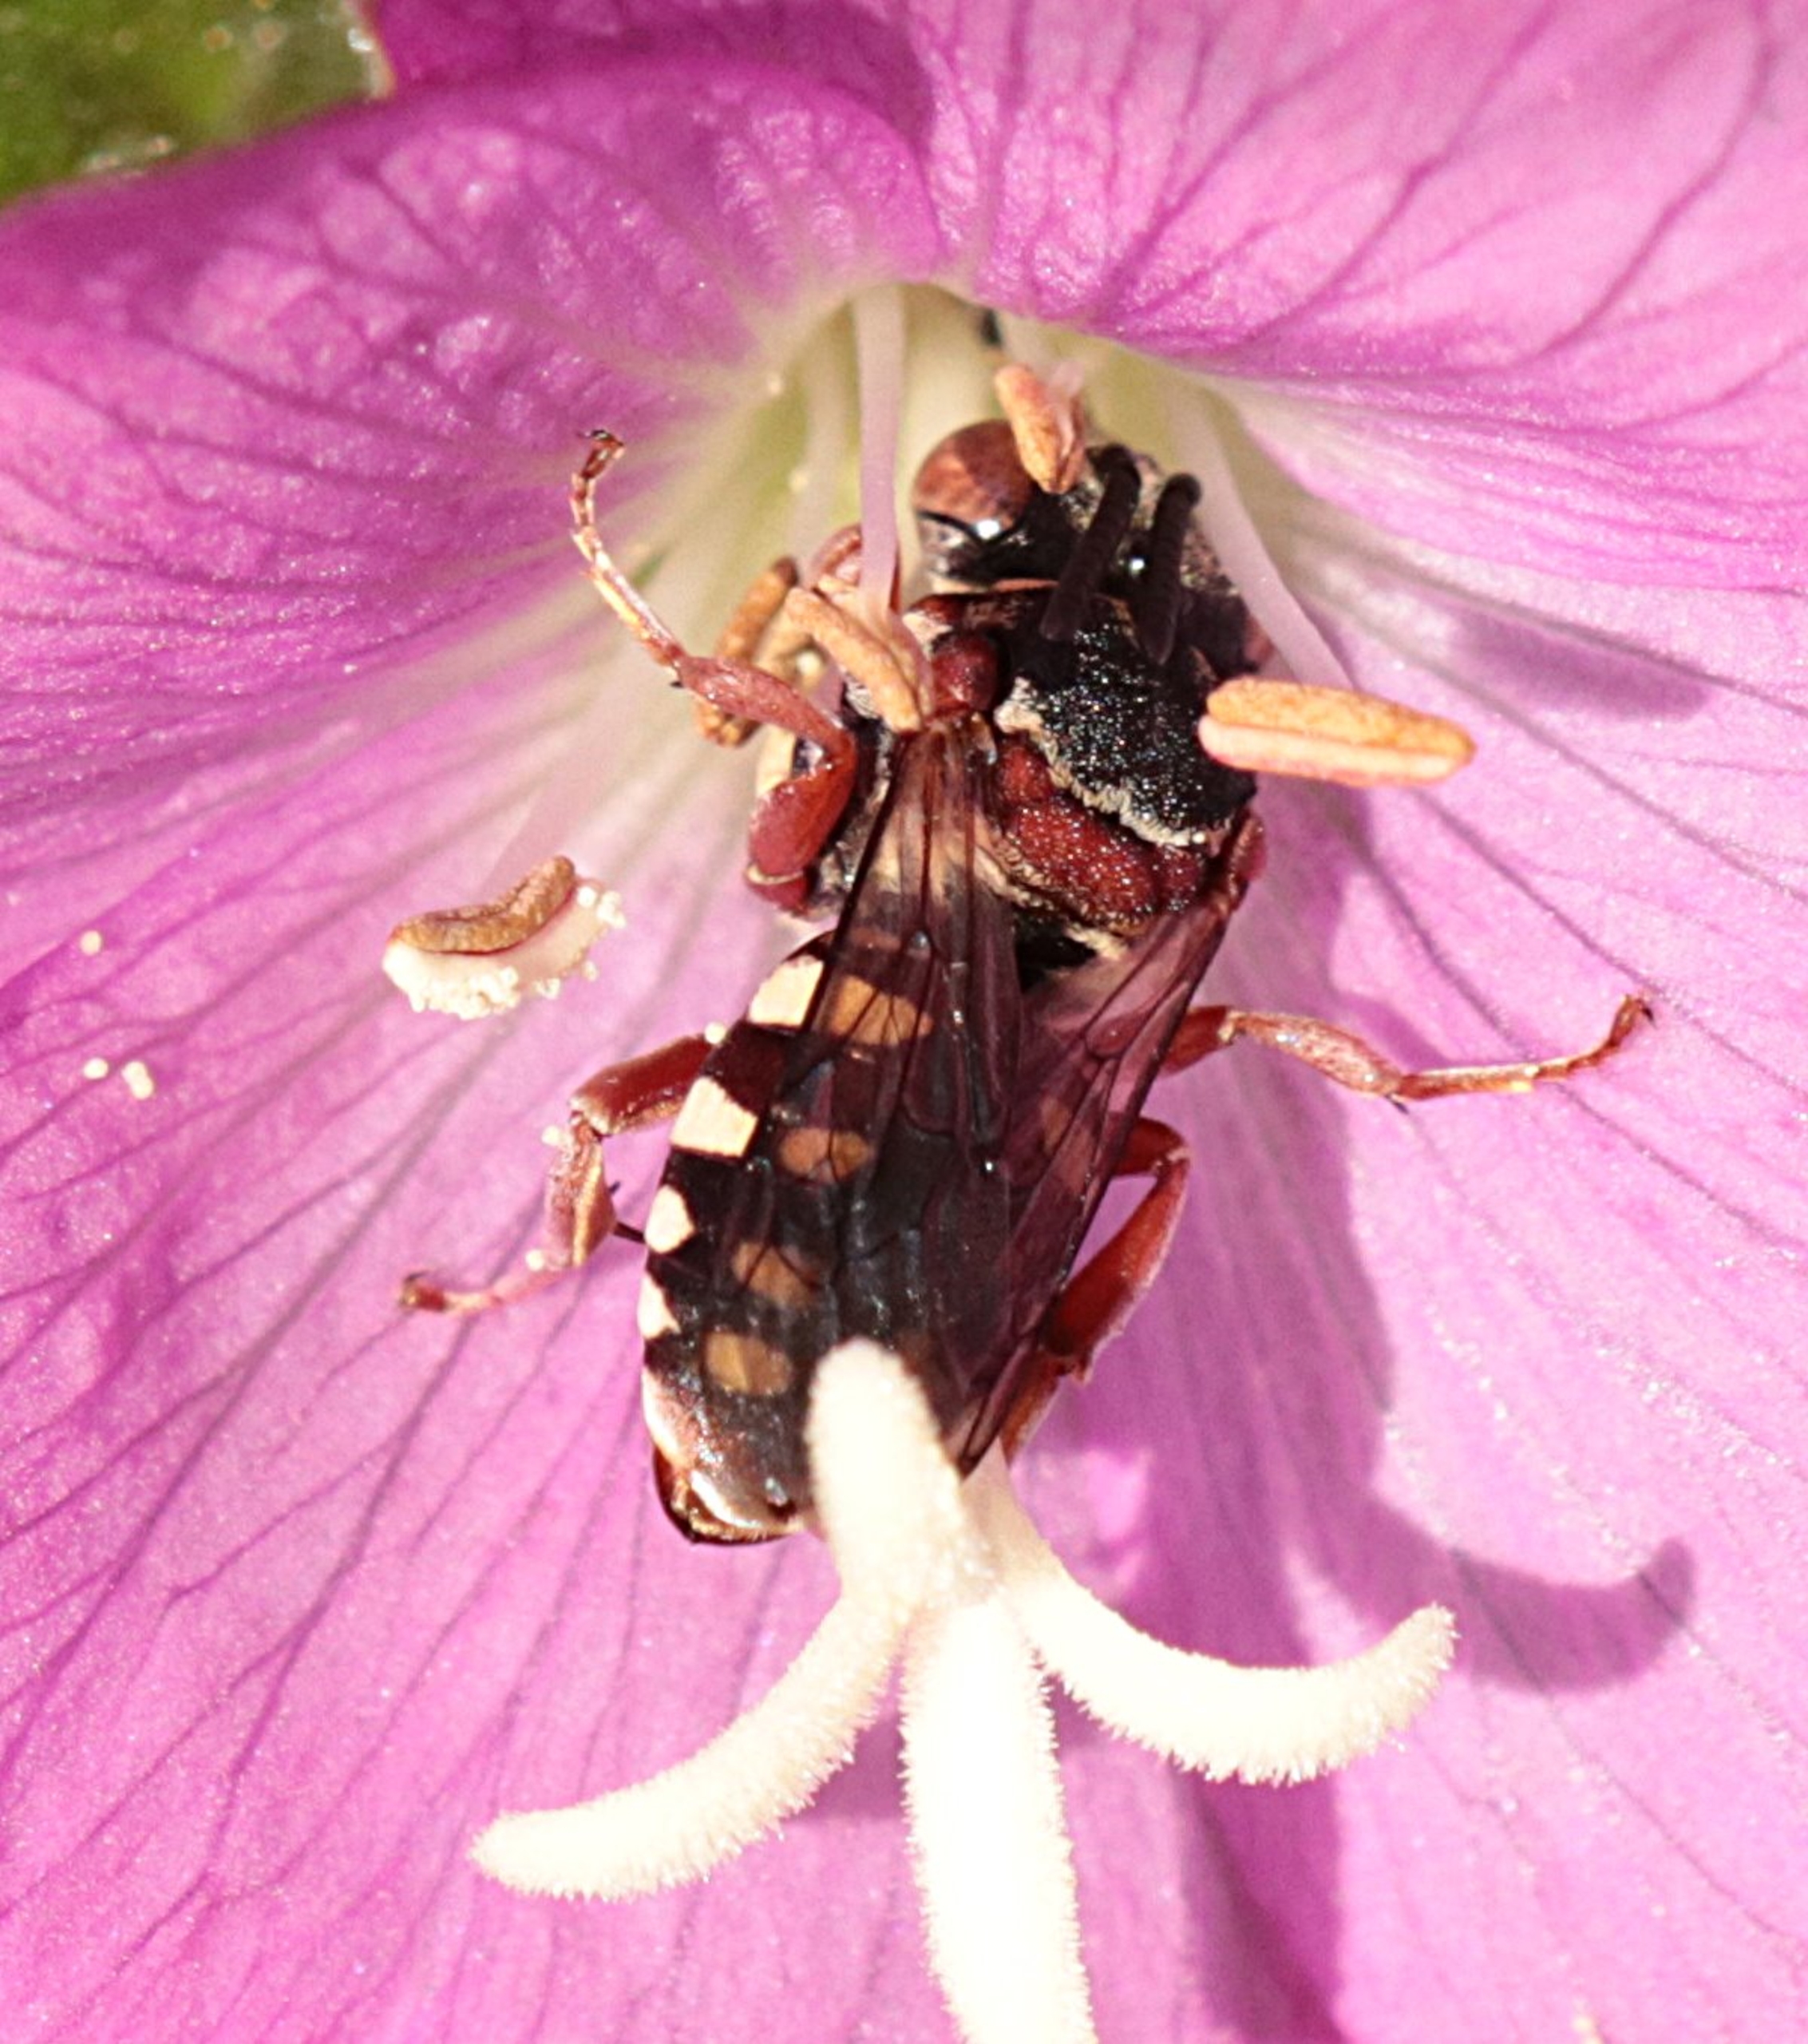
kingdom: Animalia
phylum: Arthropoda
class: Insecta
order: Hymenoptera
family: Apidae
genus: Epeolus
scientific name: Epeolus
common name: Filtbier
